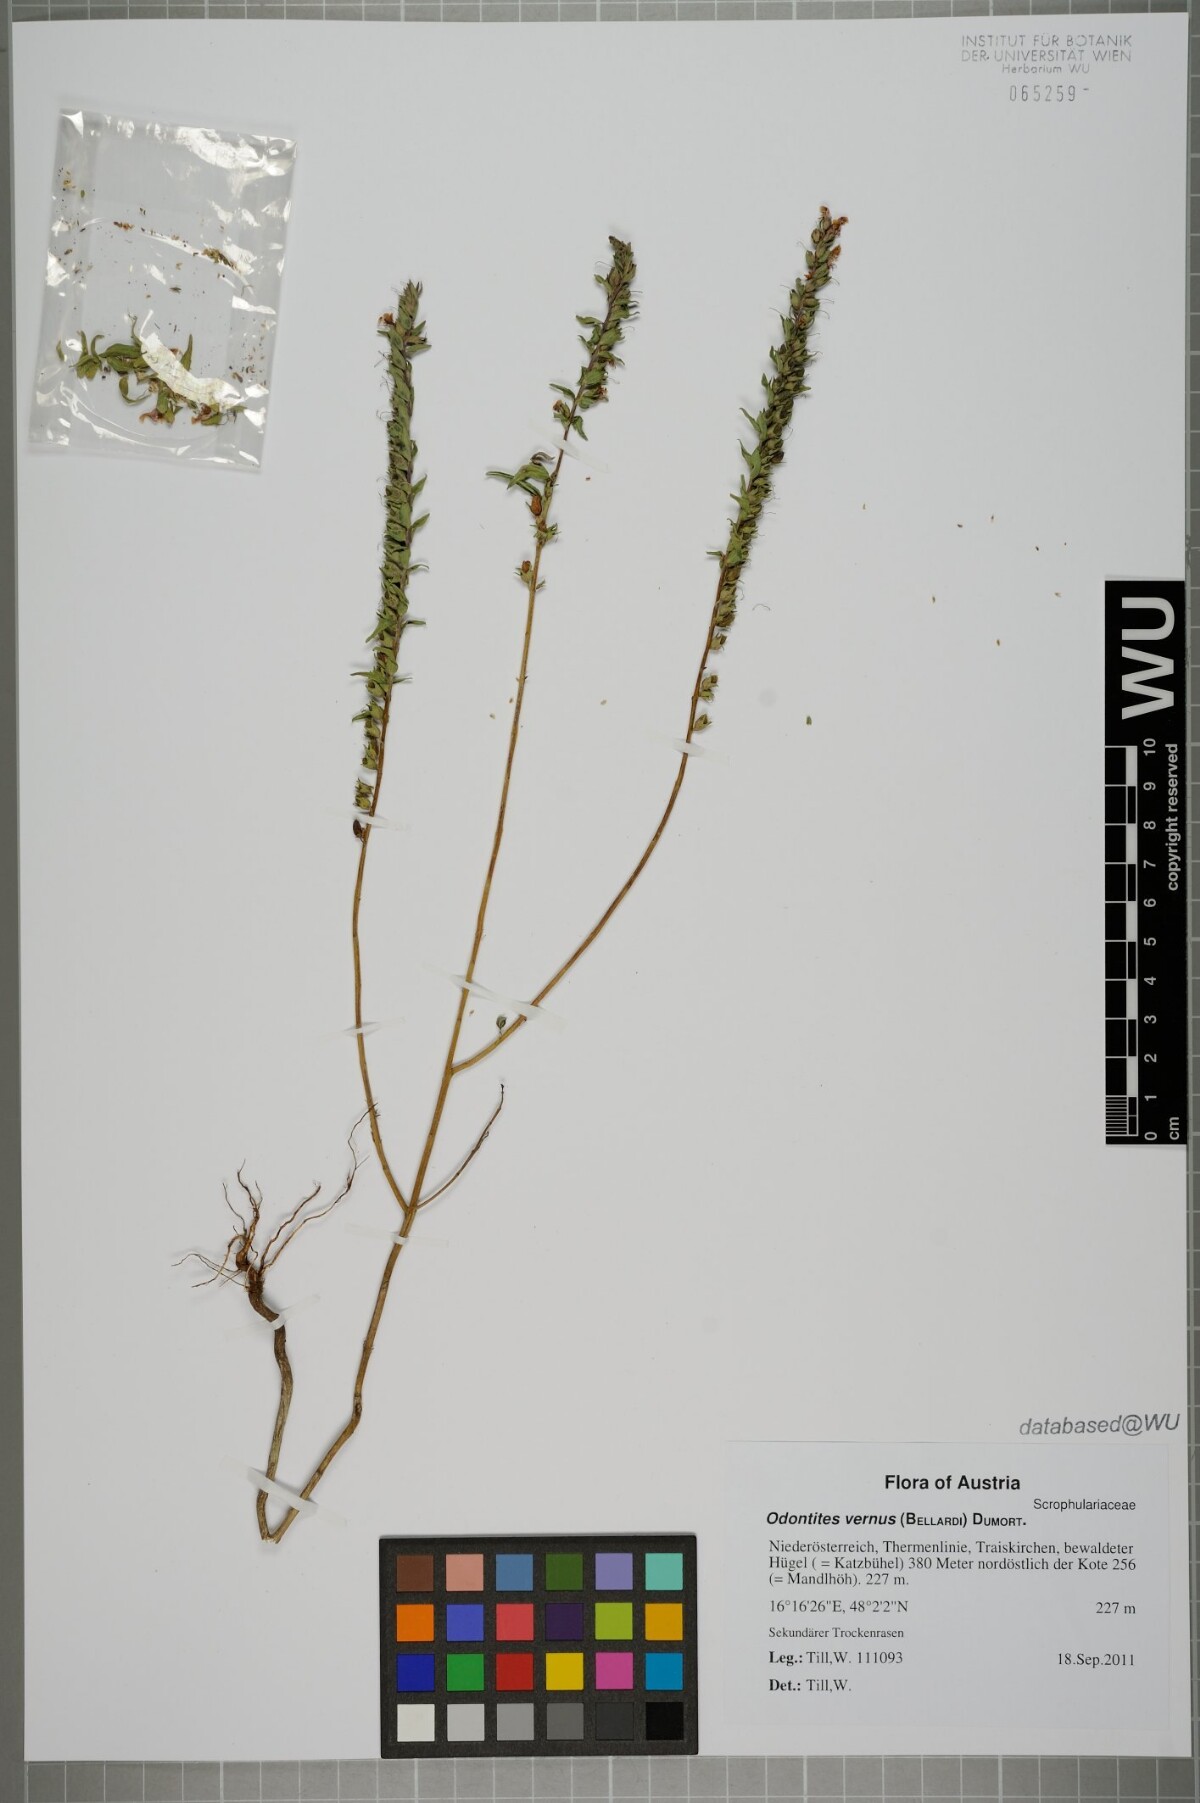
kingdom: Plantae
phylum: Tracheophyta
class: Magnoliopsida
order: Lamiales
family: Orobanchaceae
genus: Odontites
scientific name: Odontites vernus
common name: Red bartsia
